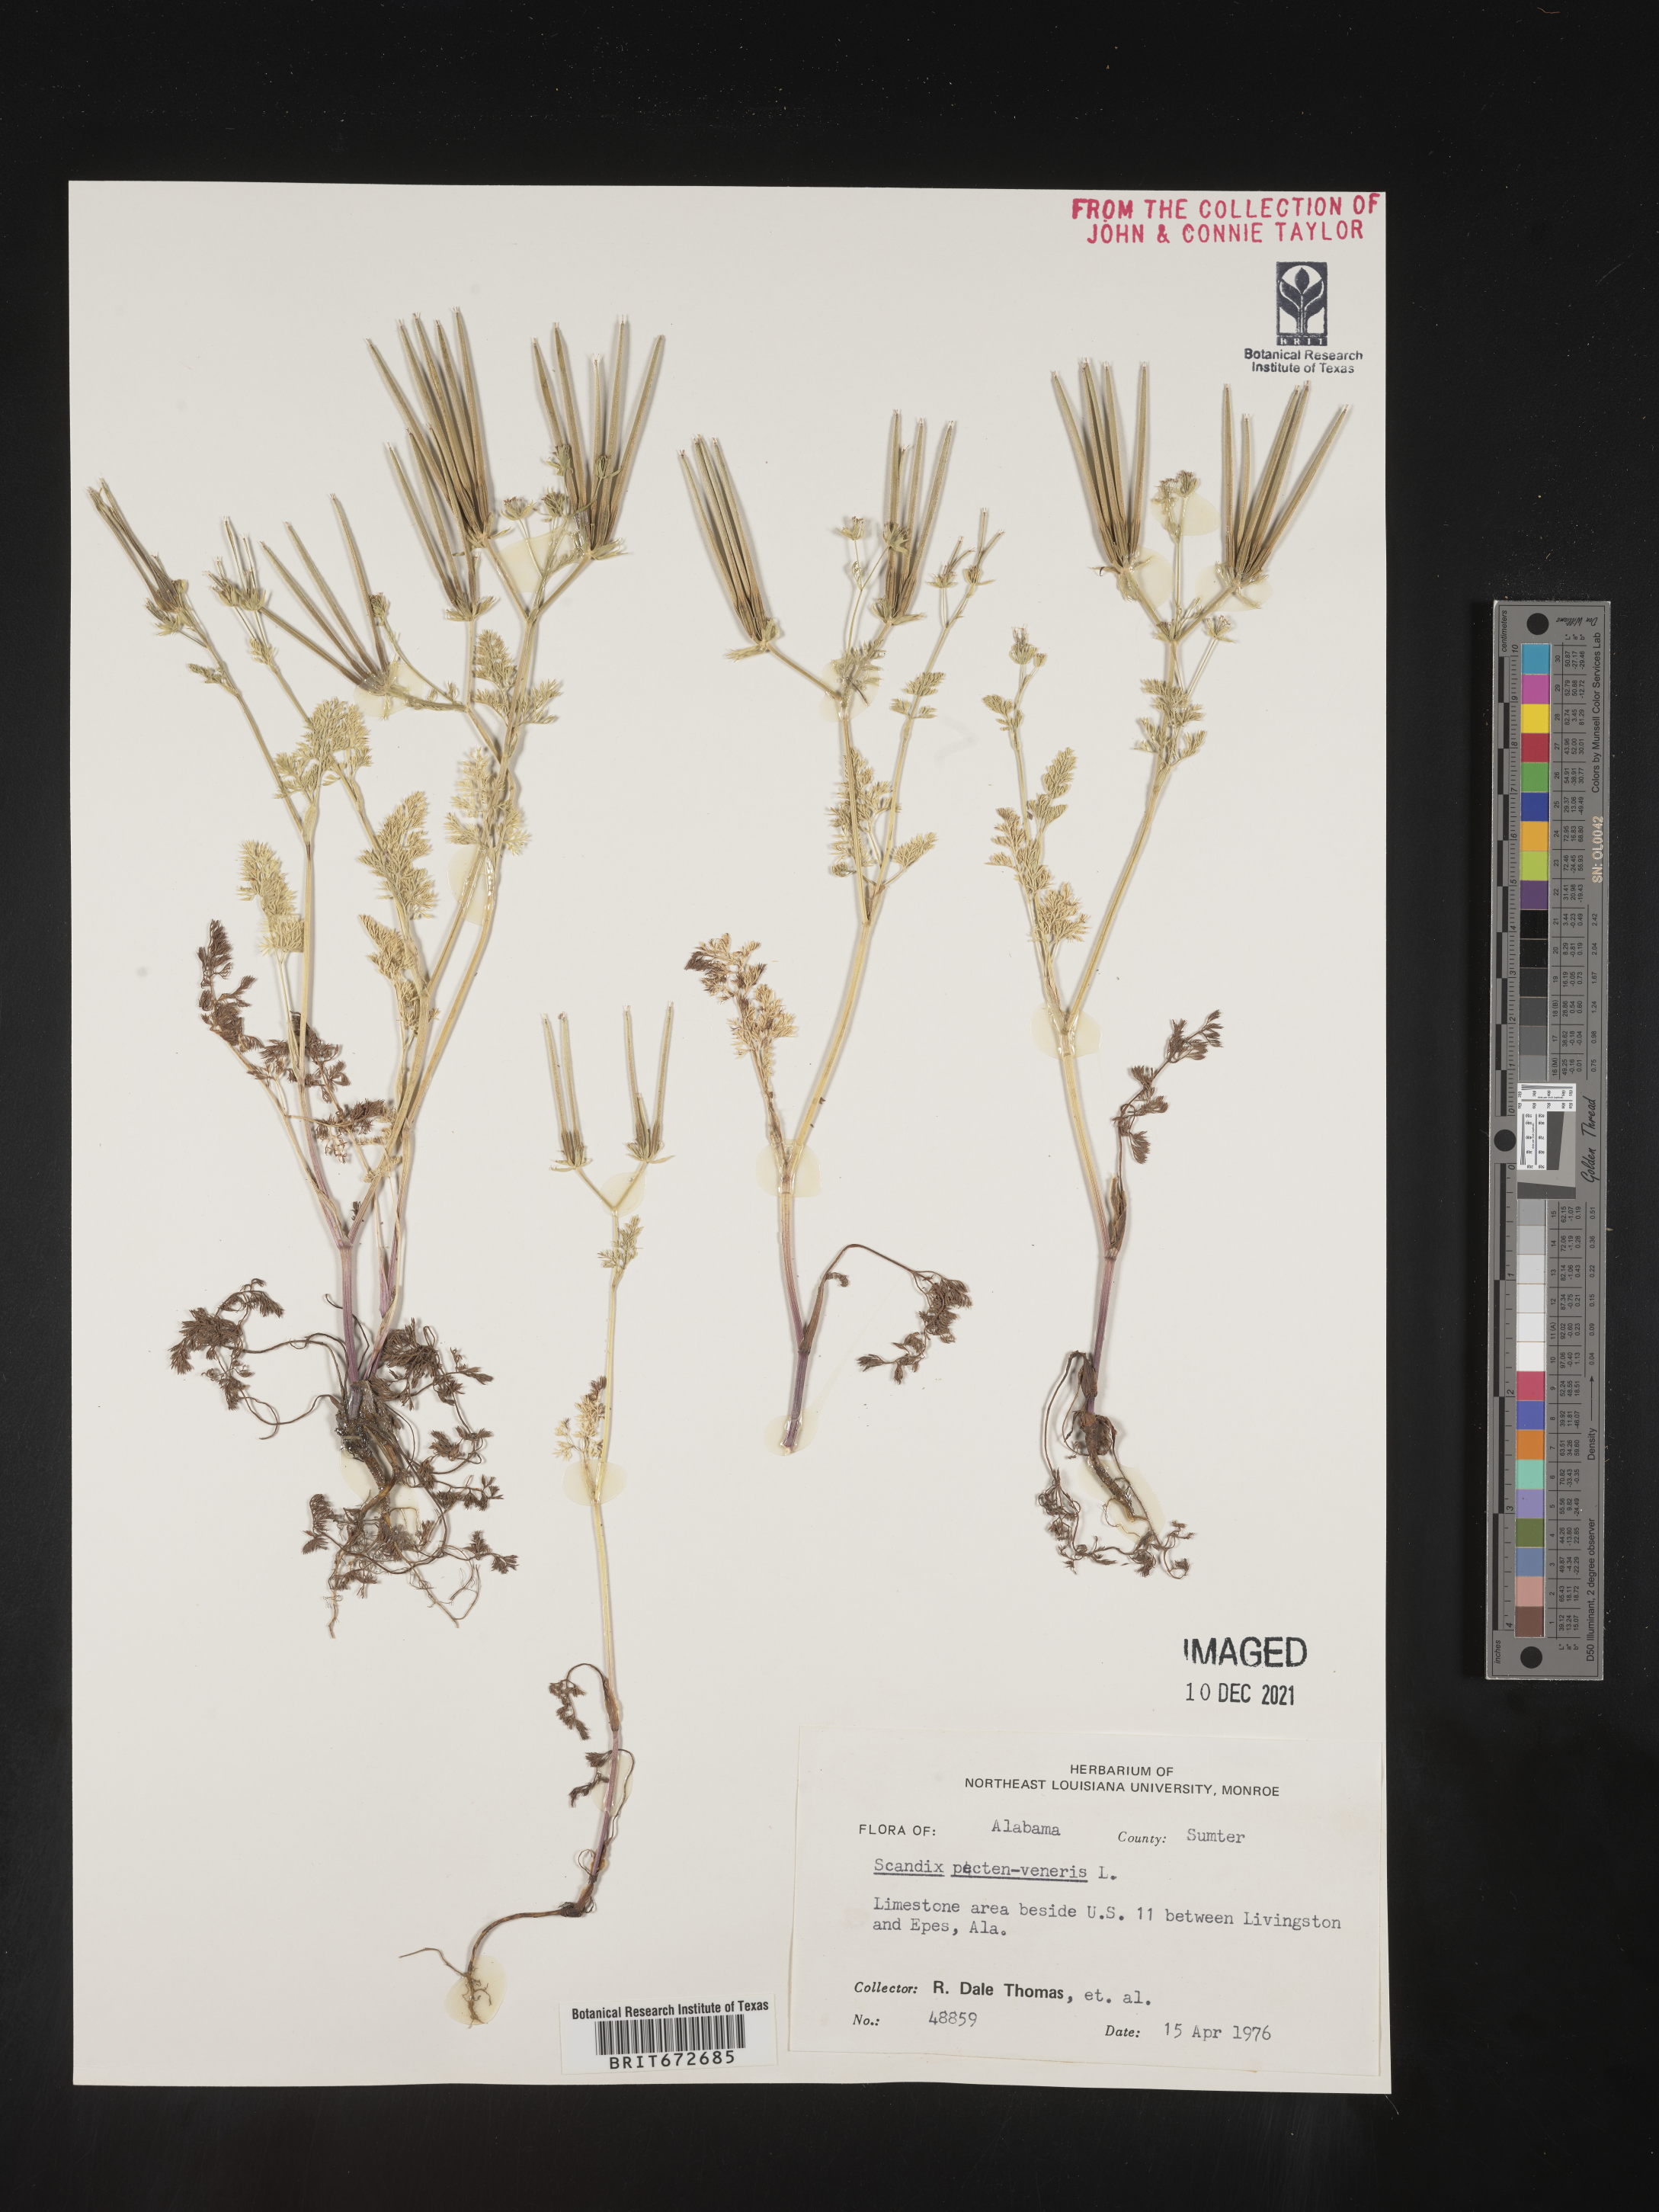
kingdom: Plantae
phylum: Tracheophyta
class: Magnoliopsida
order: Apiales
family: Apiaceae
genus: Scandix
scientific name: Scandix
